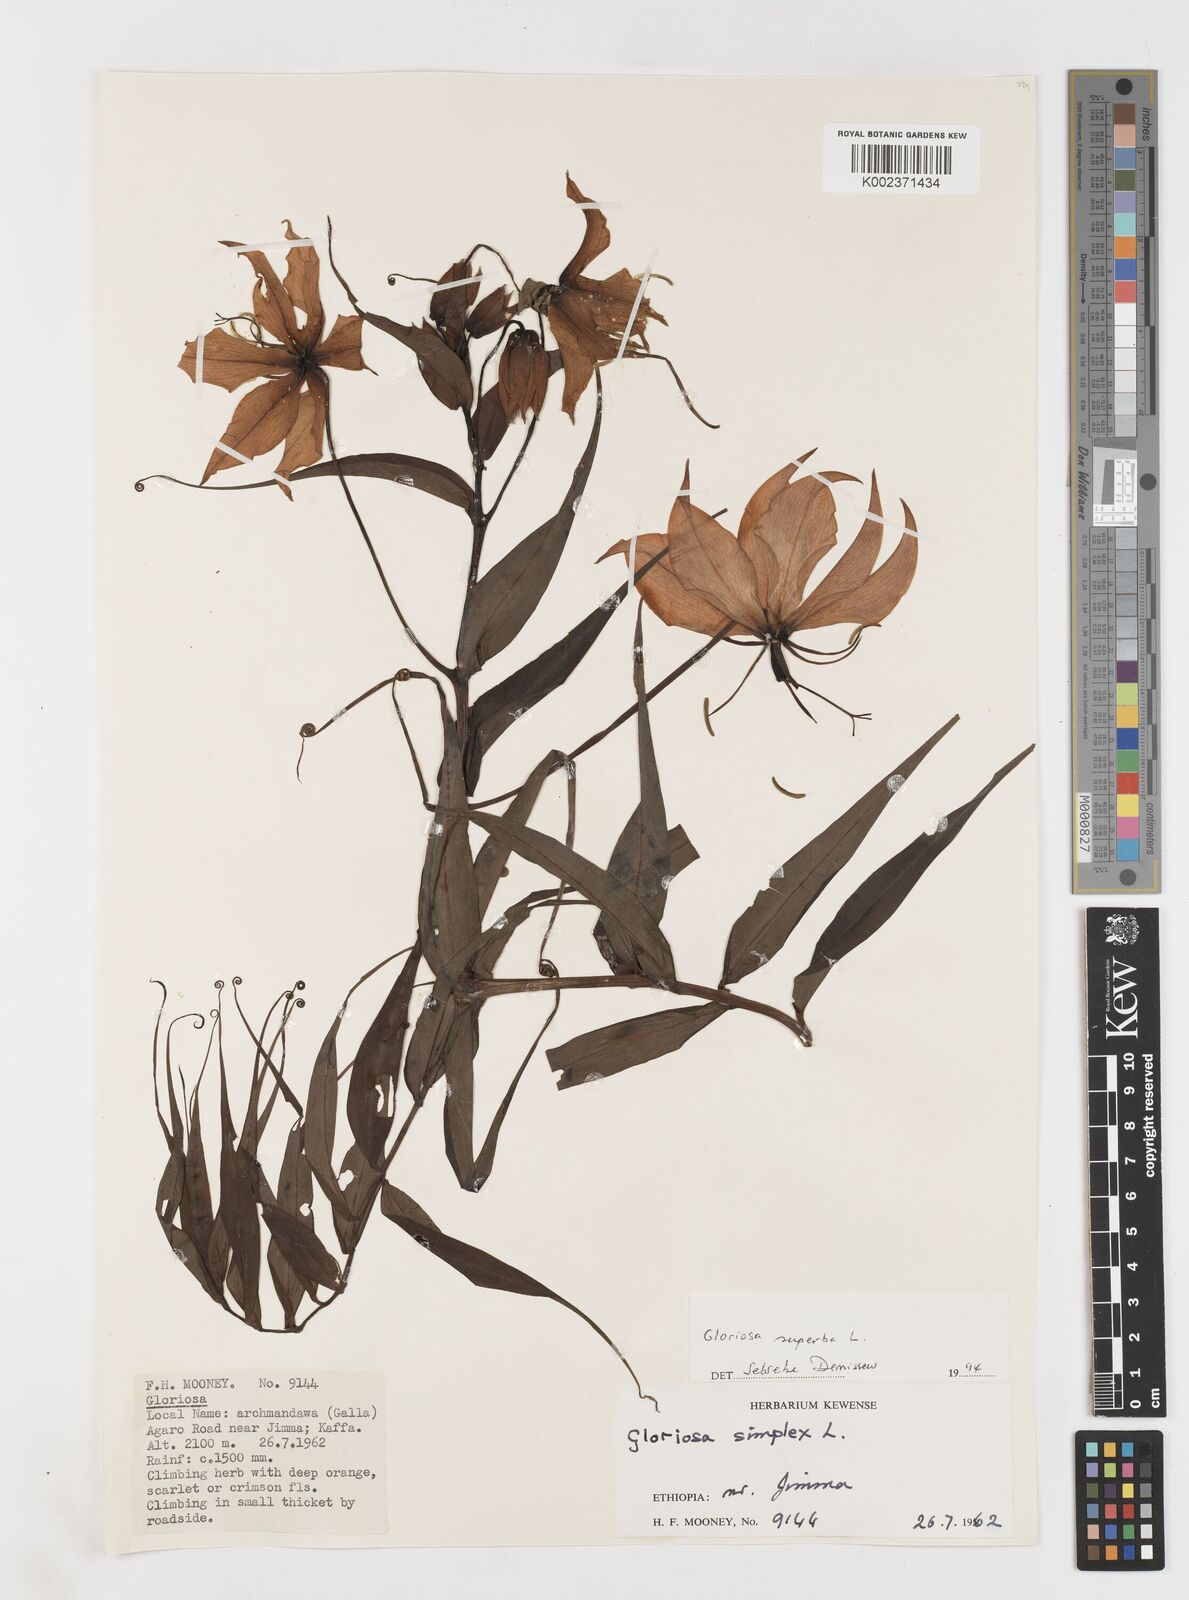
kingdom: Plantae
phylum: Tracheophyta
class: Liliopsida
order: Liliales
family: Colchicaceae
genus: Gloriosa
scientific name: Gloriosa simplex
